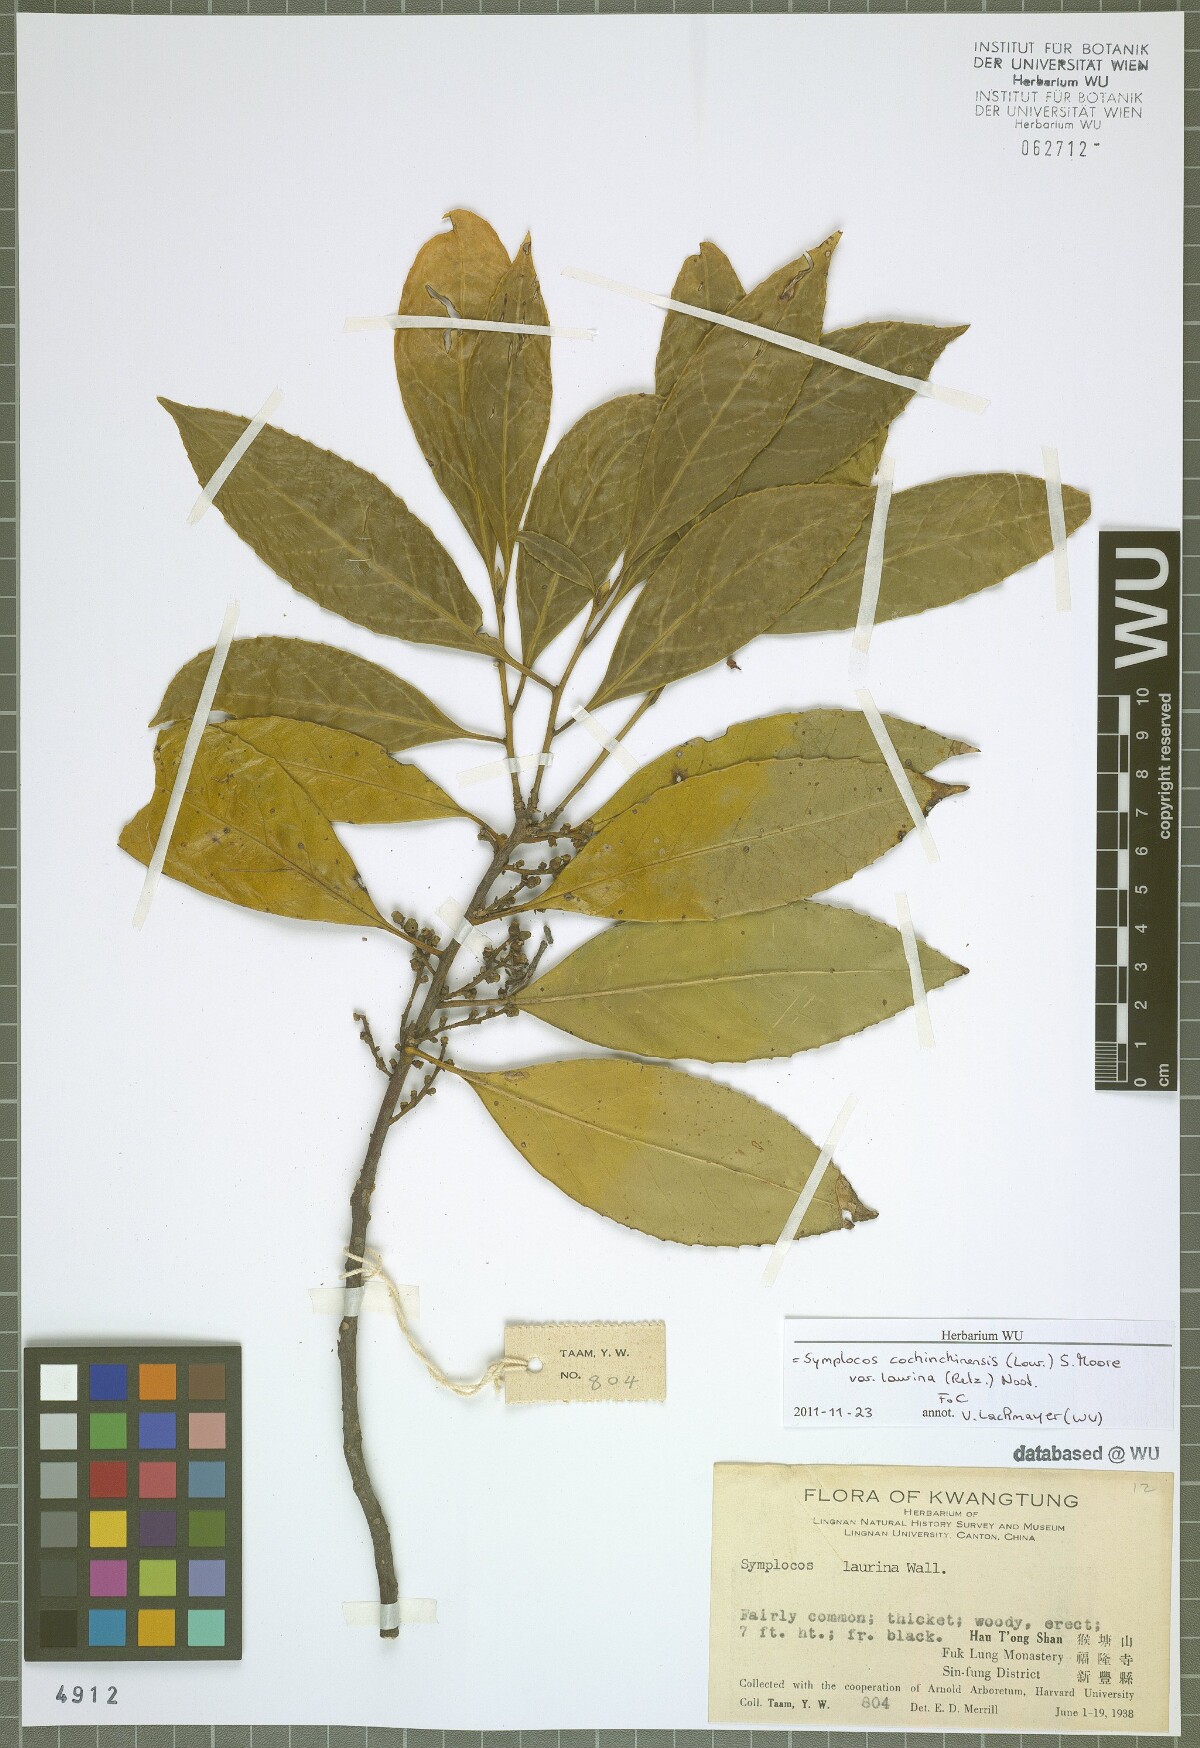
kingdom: Plantae
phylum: Tracheophyta
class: Magnoliopsida
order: Ericales
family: Symplocaceae
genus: Symplocos
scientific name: Symplocos acuminata
